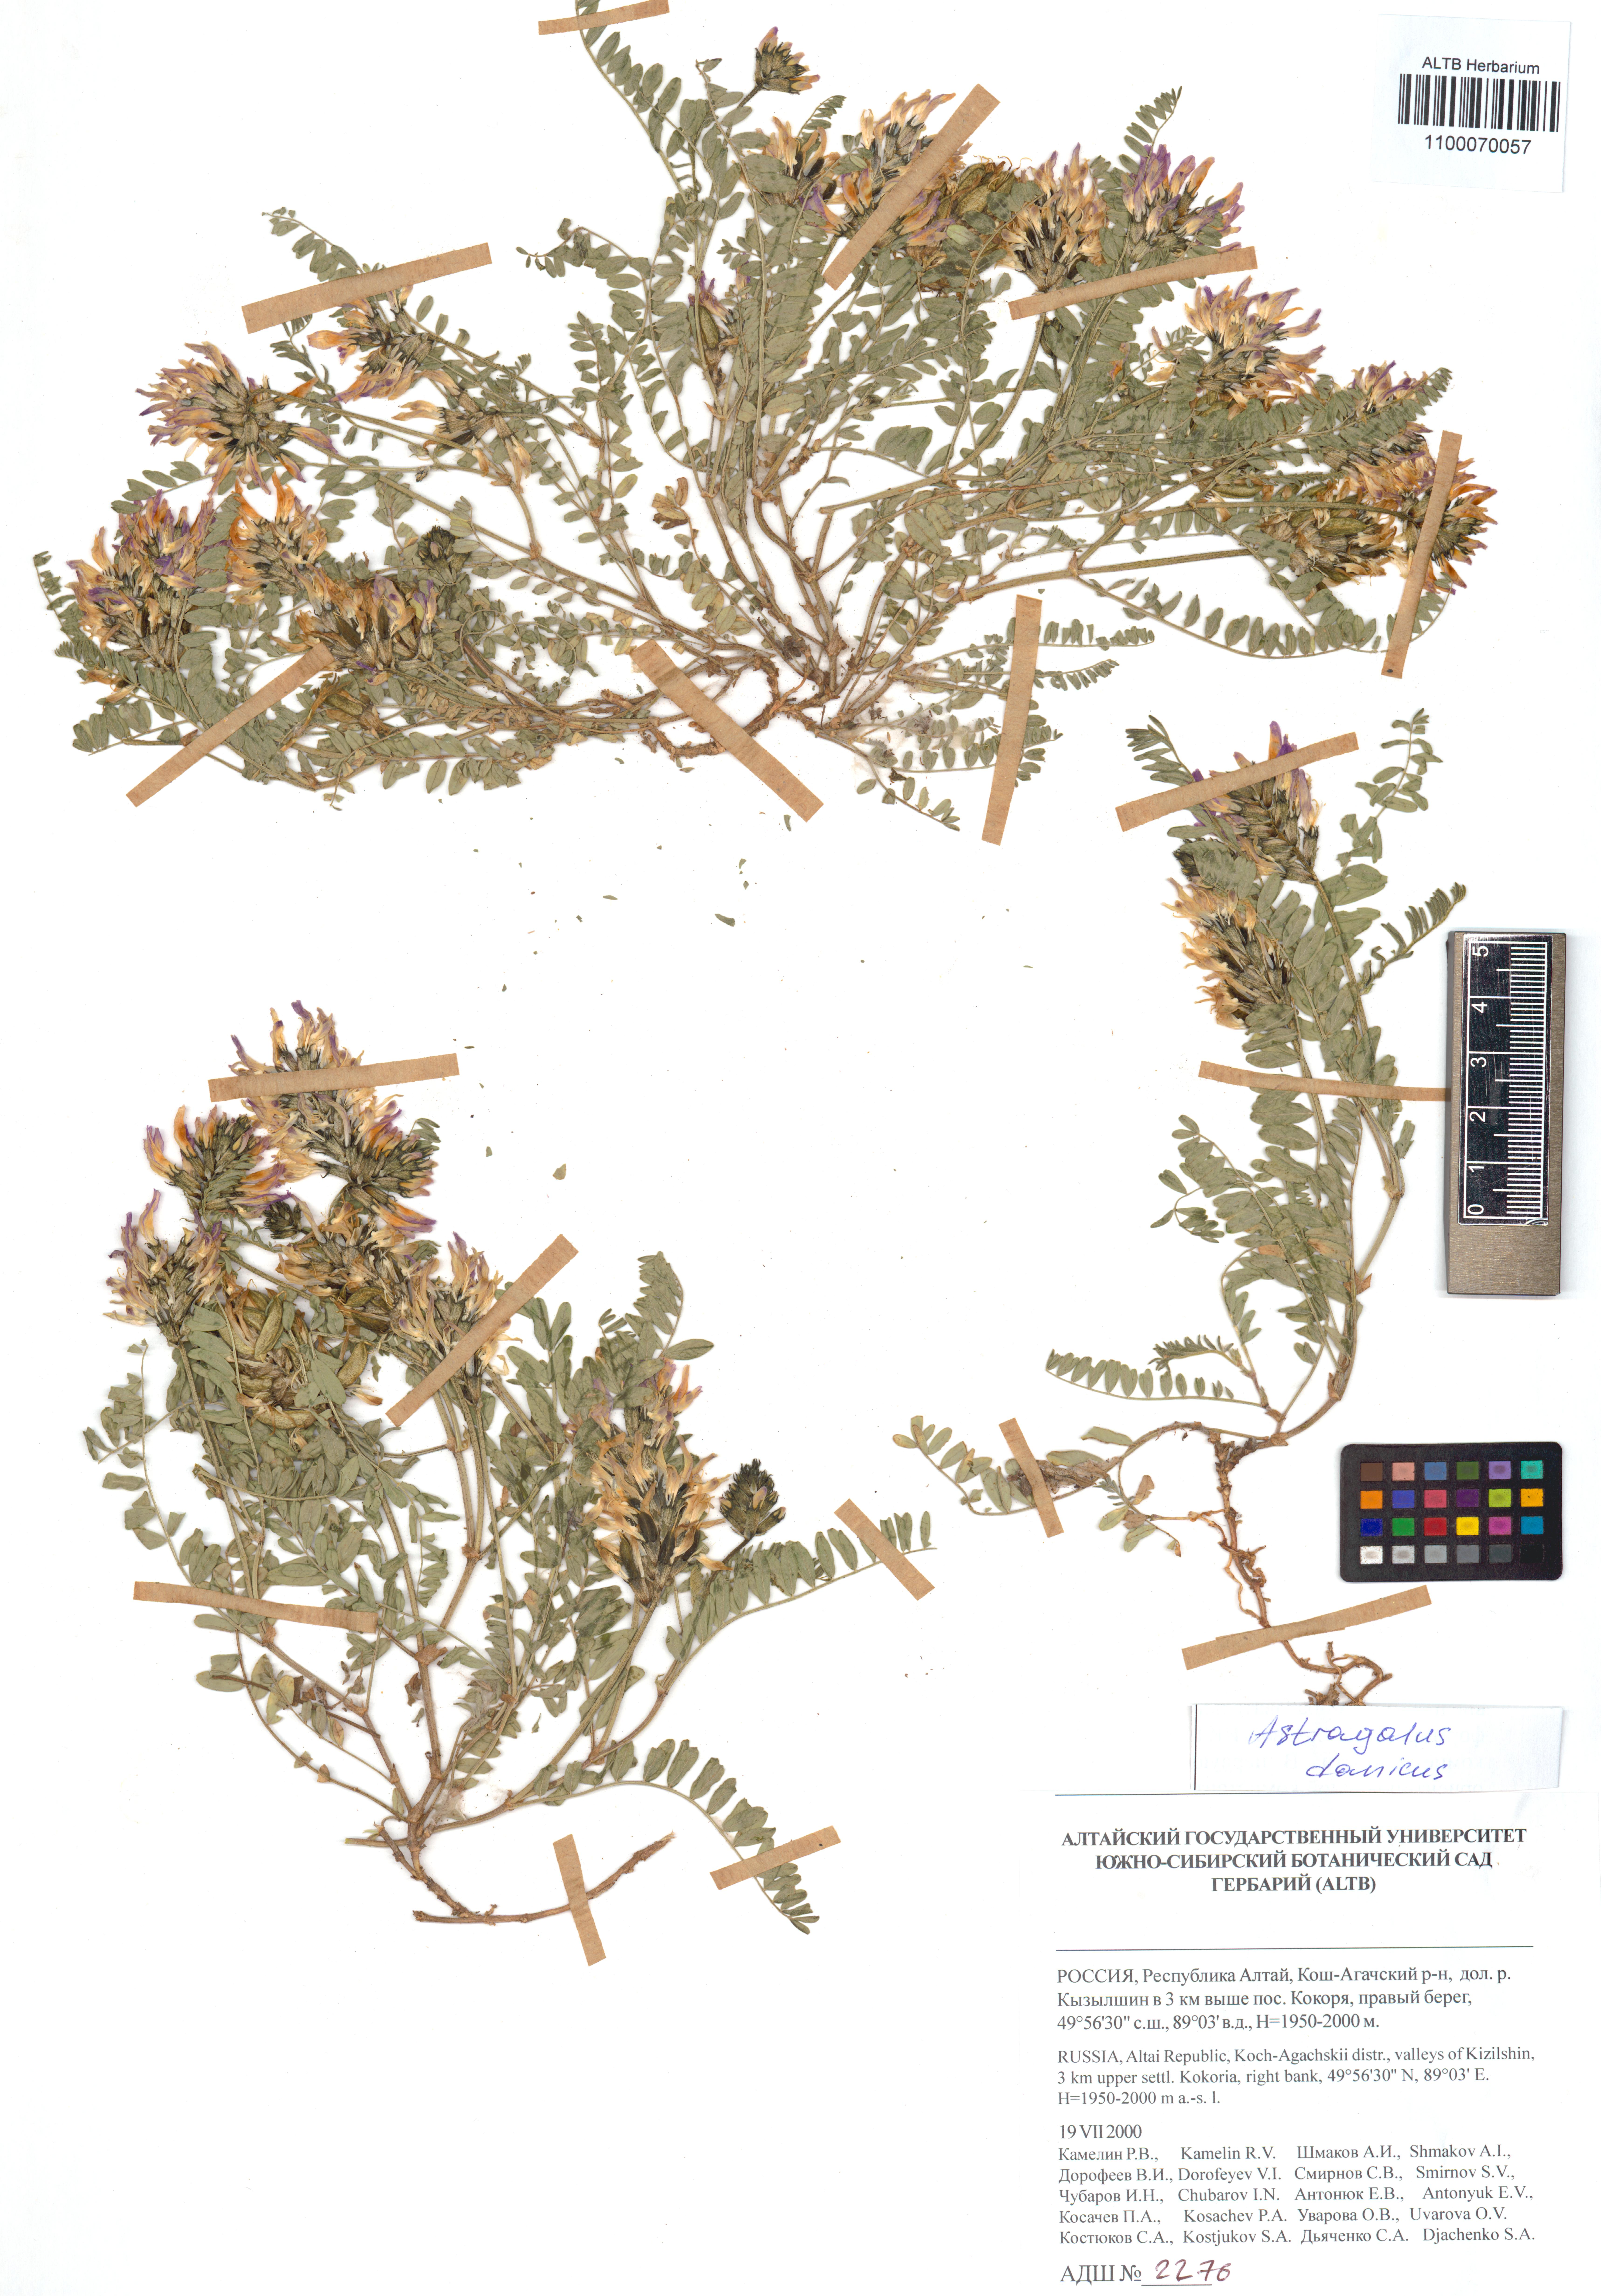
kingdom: Plantae
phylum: Tracheophyta
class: Magnoliopsida
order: Fabales
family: Fabaceae
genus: Astragalus
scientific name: Astragalus danicus
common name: Purple milk-vetch
